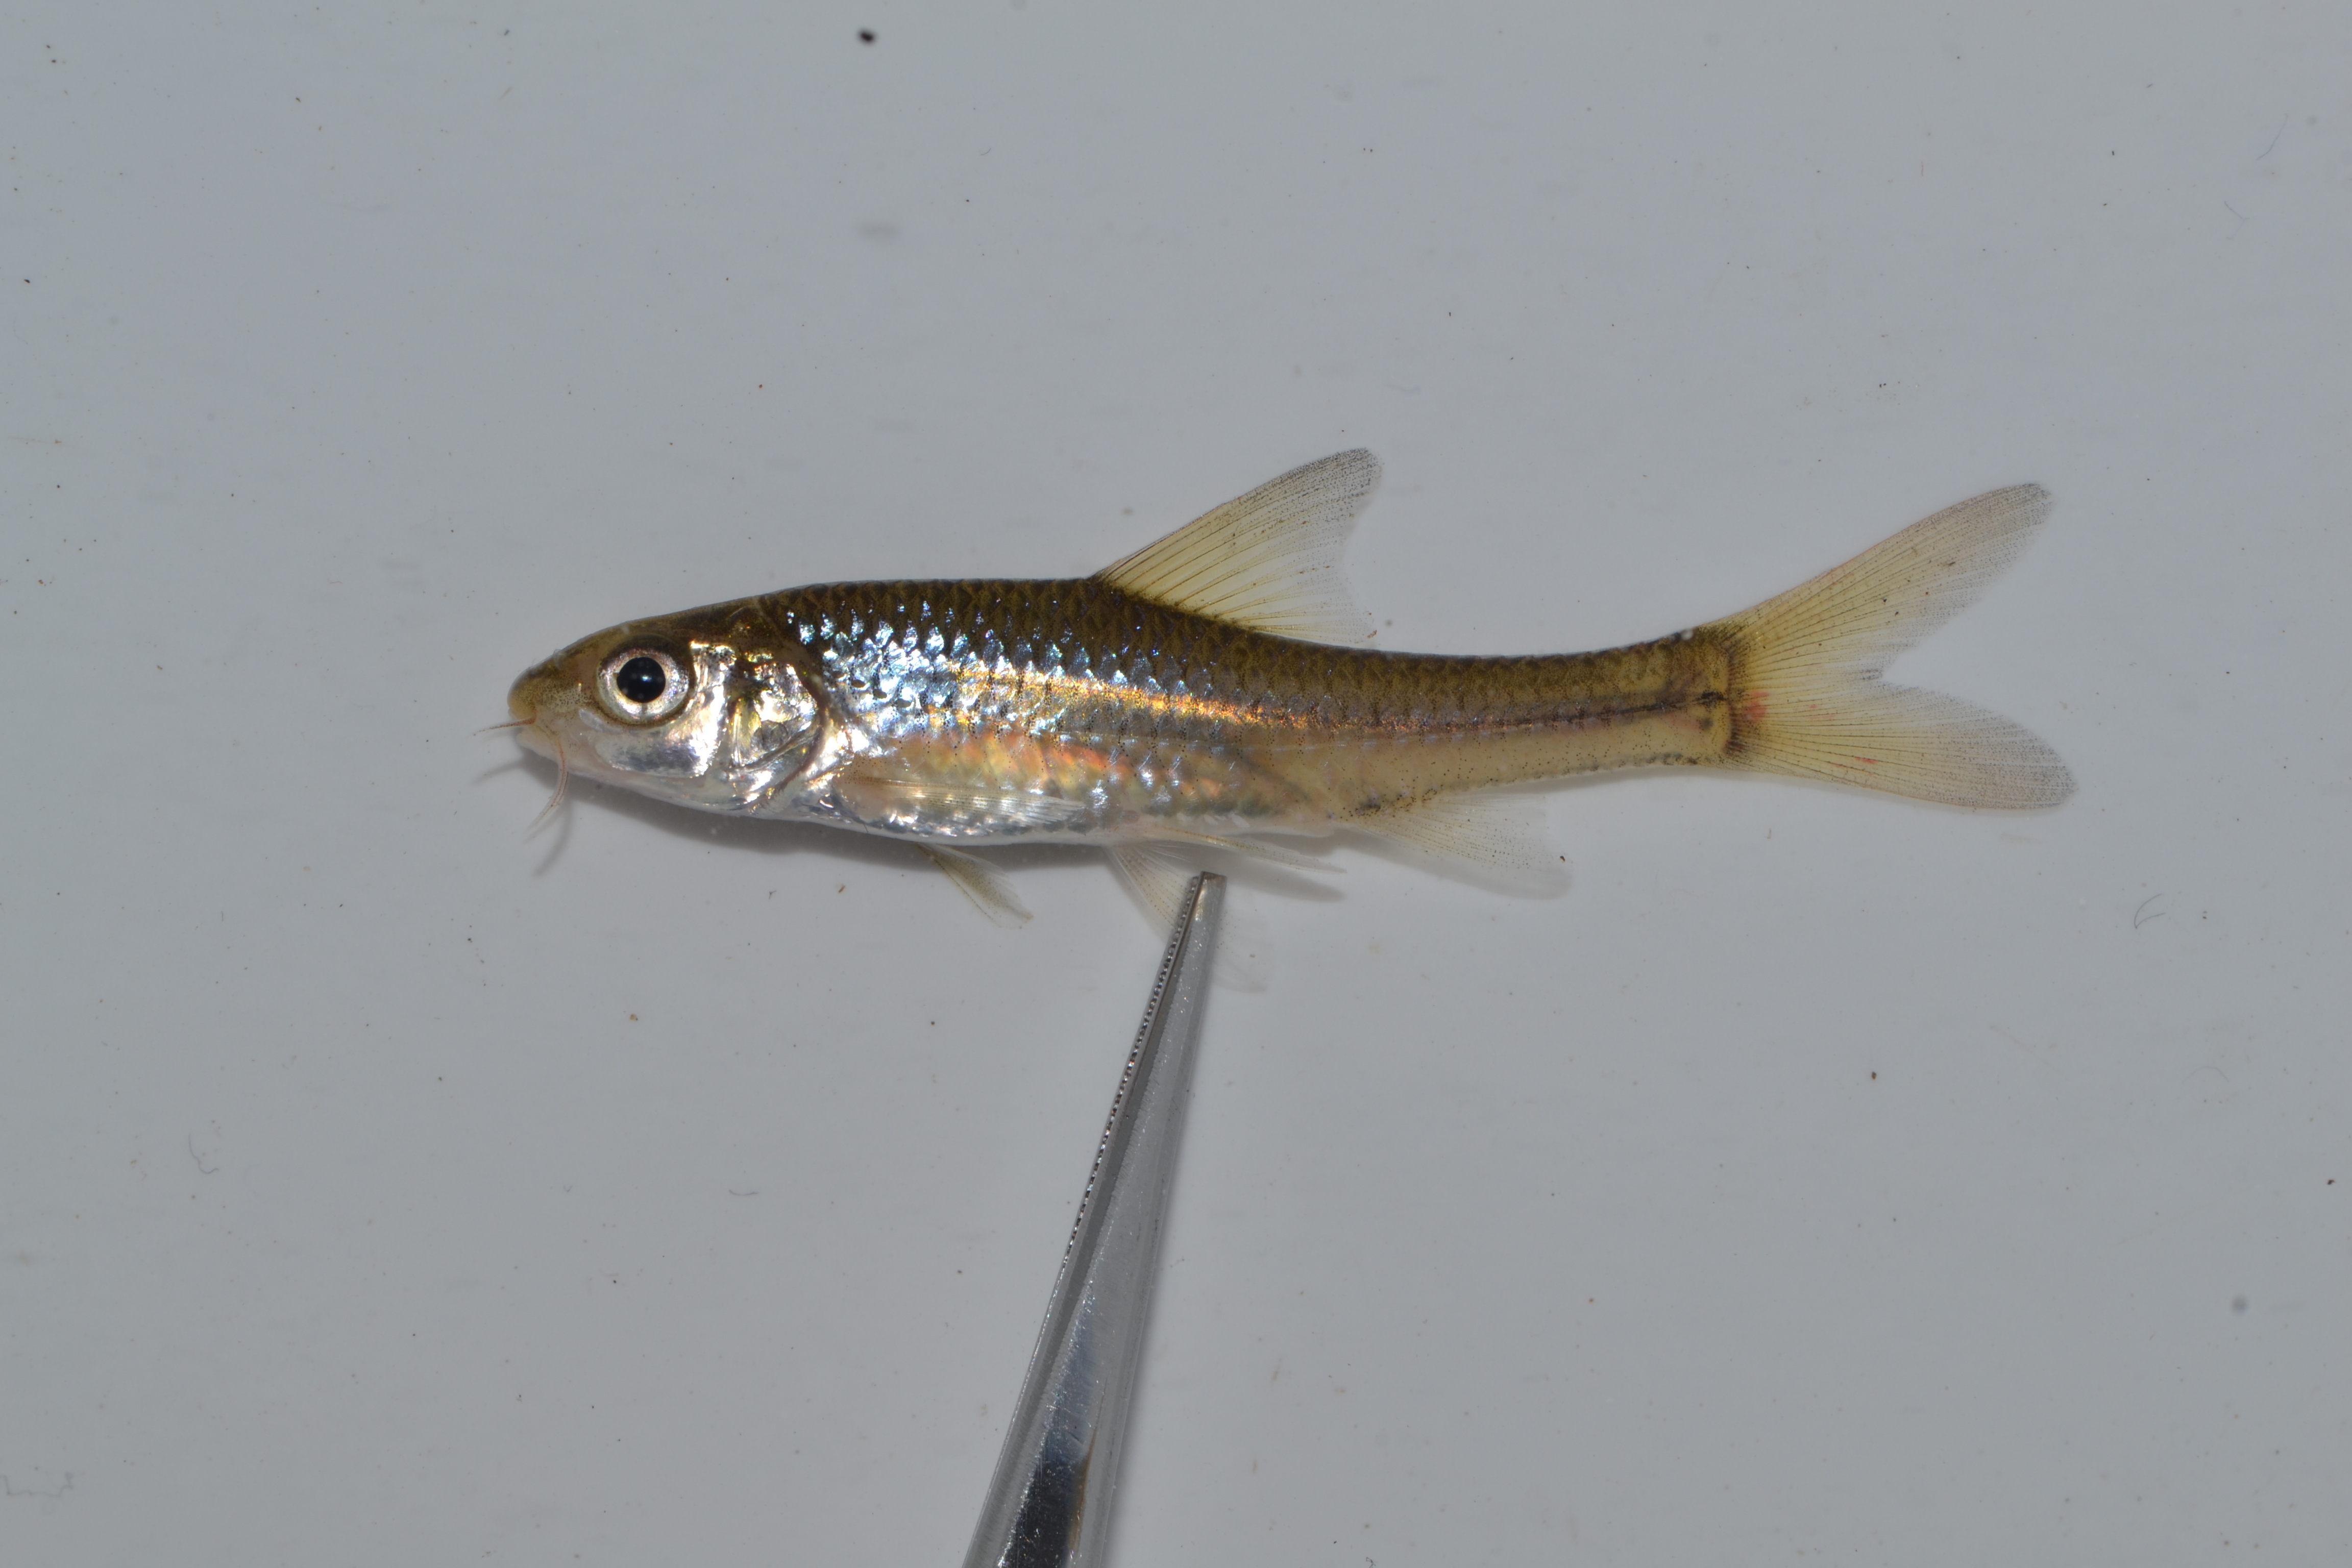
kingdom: Animalia
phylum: Chordata
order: Cypriniformes
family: Cyprinidae
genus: Labeobarbus
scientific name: Labeobarbus natalensis
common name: Scaly
